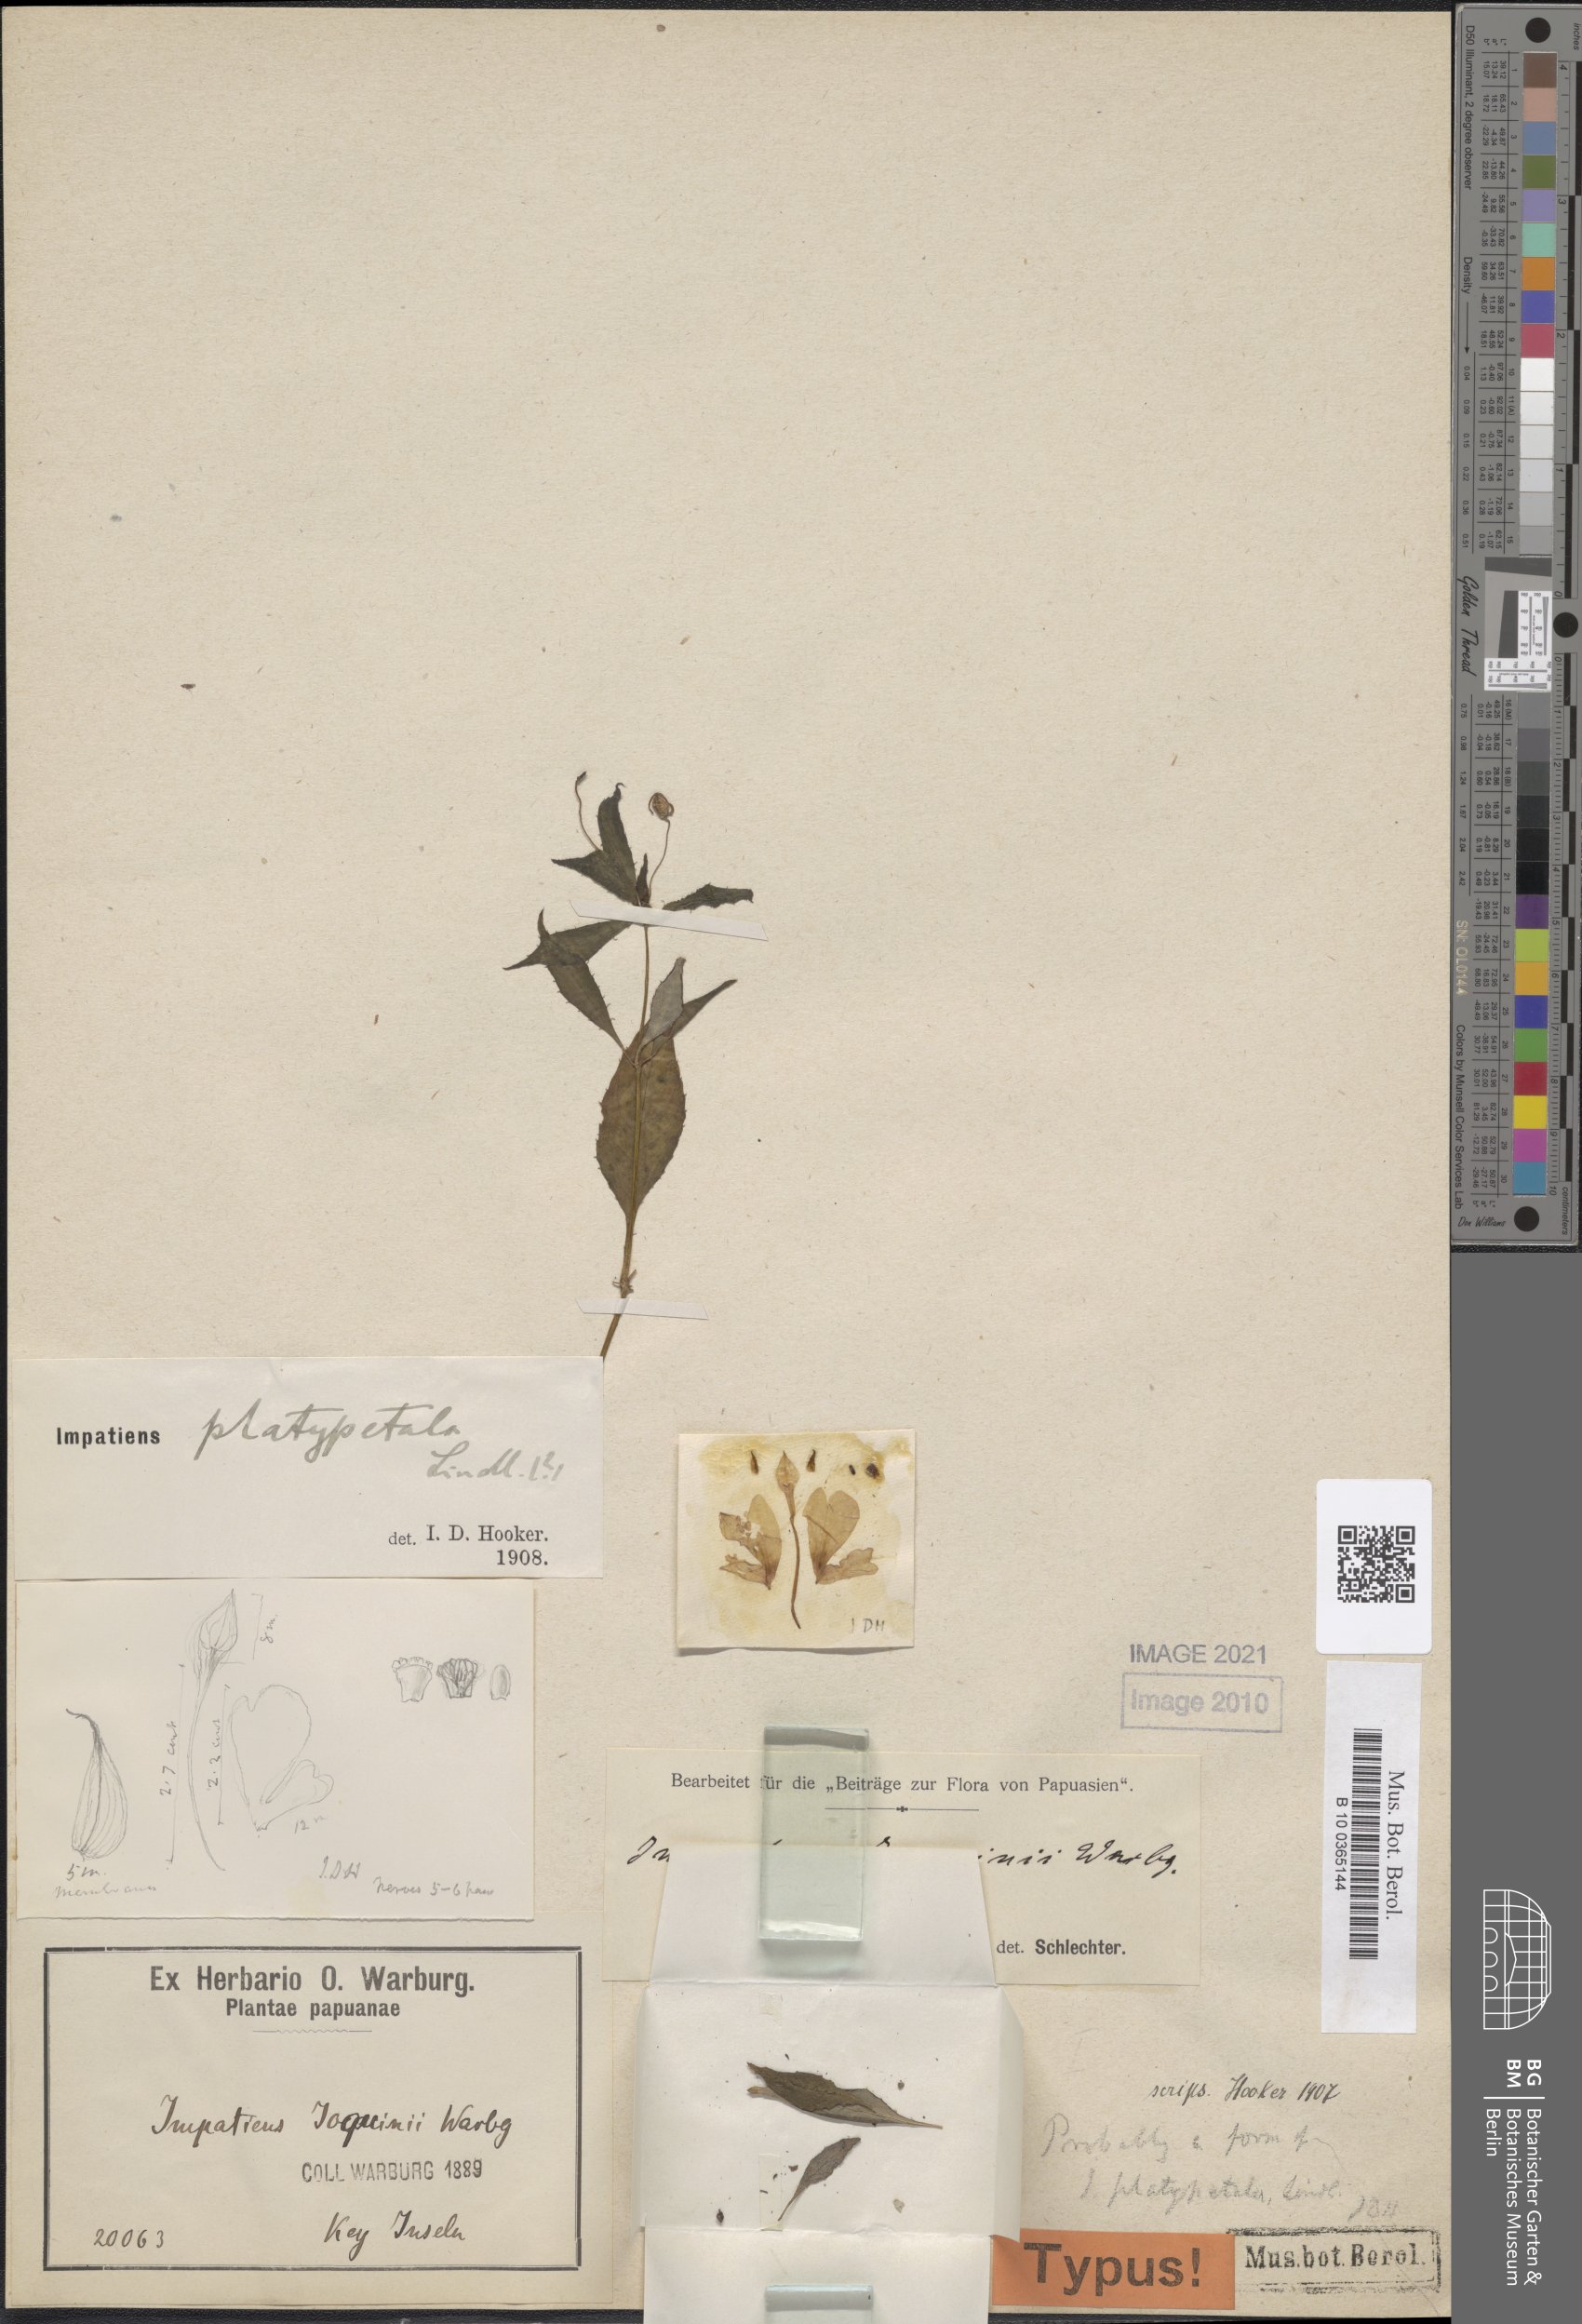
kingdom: Plantae
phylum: Tracheophyta
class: Magnoliopsida
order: Ericales
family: Balsaminaceae
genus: Impatiens
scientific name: Impatiens hochstetteri
